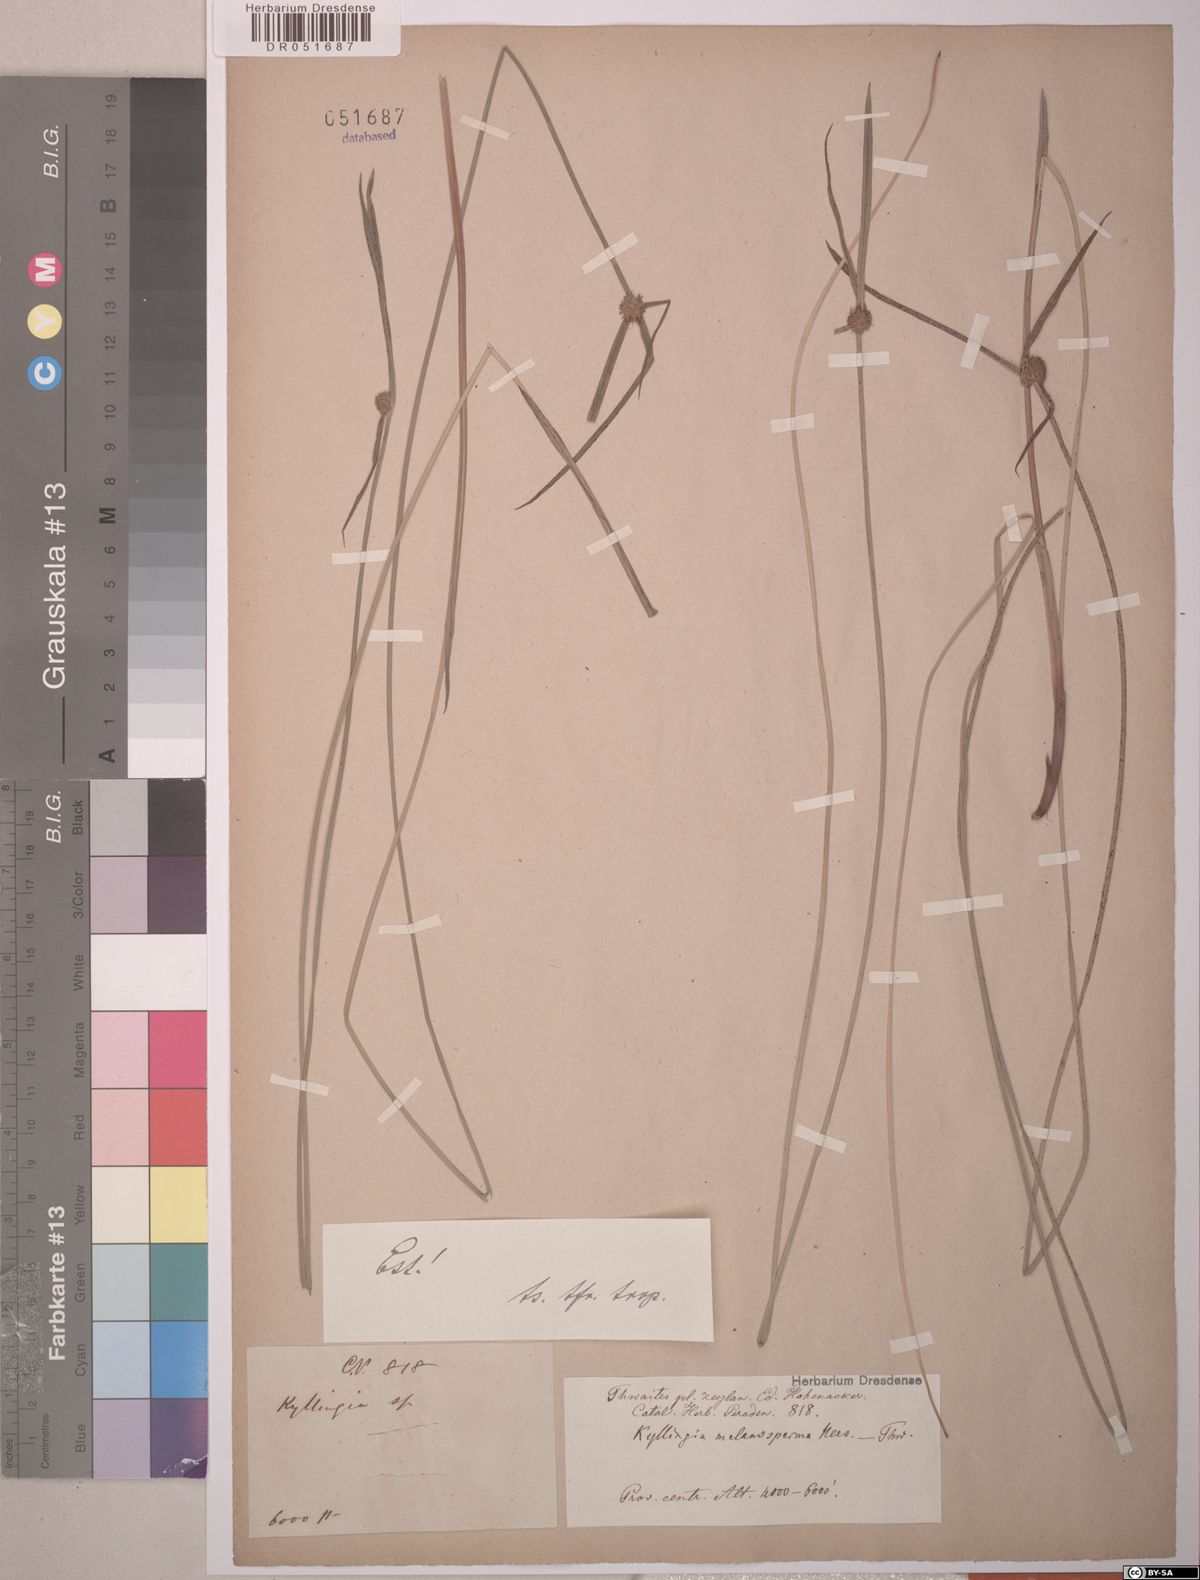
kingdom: Plantae
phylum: Tracheophyta
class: Liliopsida
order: Poales
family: Cyperaceae
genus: Cyperus
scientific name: Cyperus melanospermus
